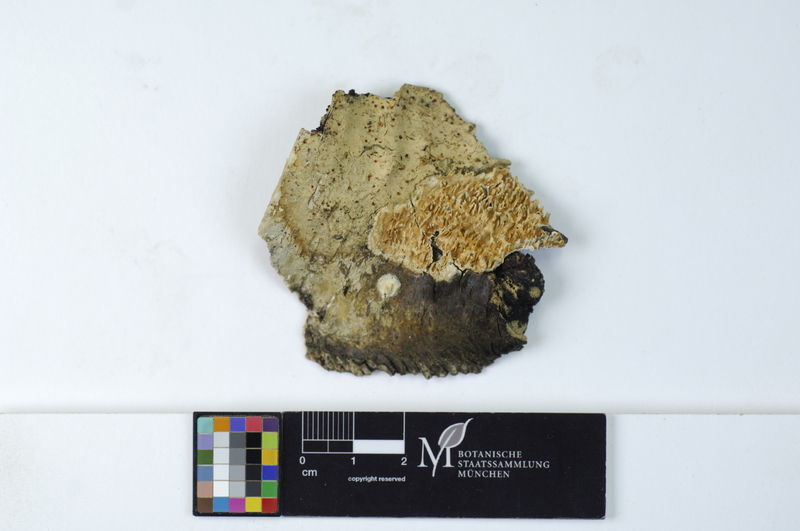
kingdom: Plantae
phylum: Tracheophyta
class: Magnoliopsida
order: Fagales
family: Betulaceae
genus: Betula
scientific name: Betula
